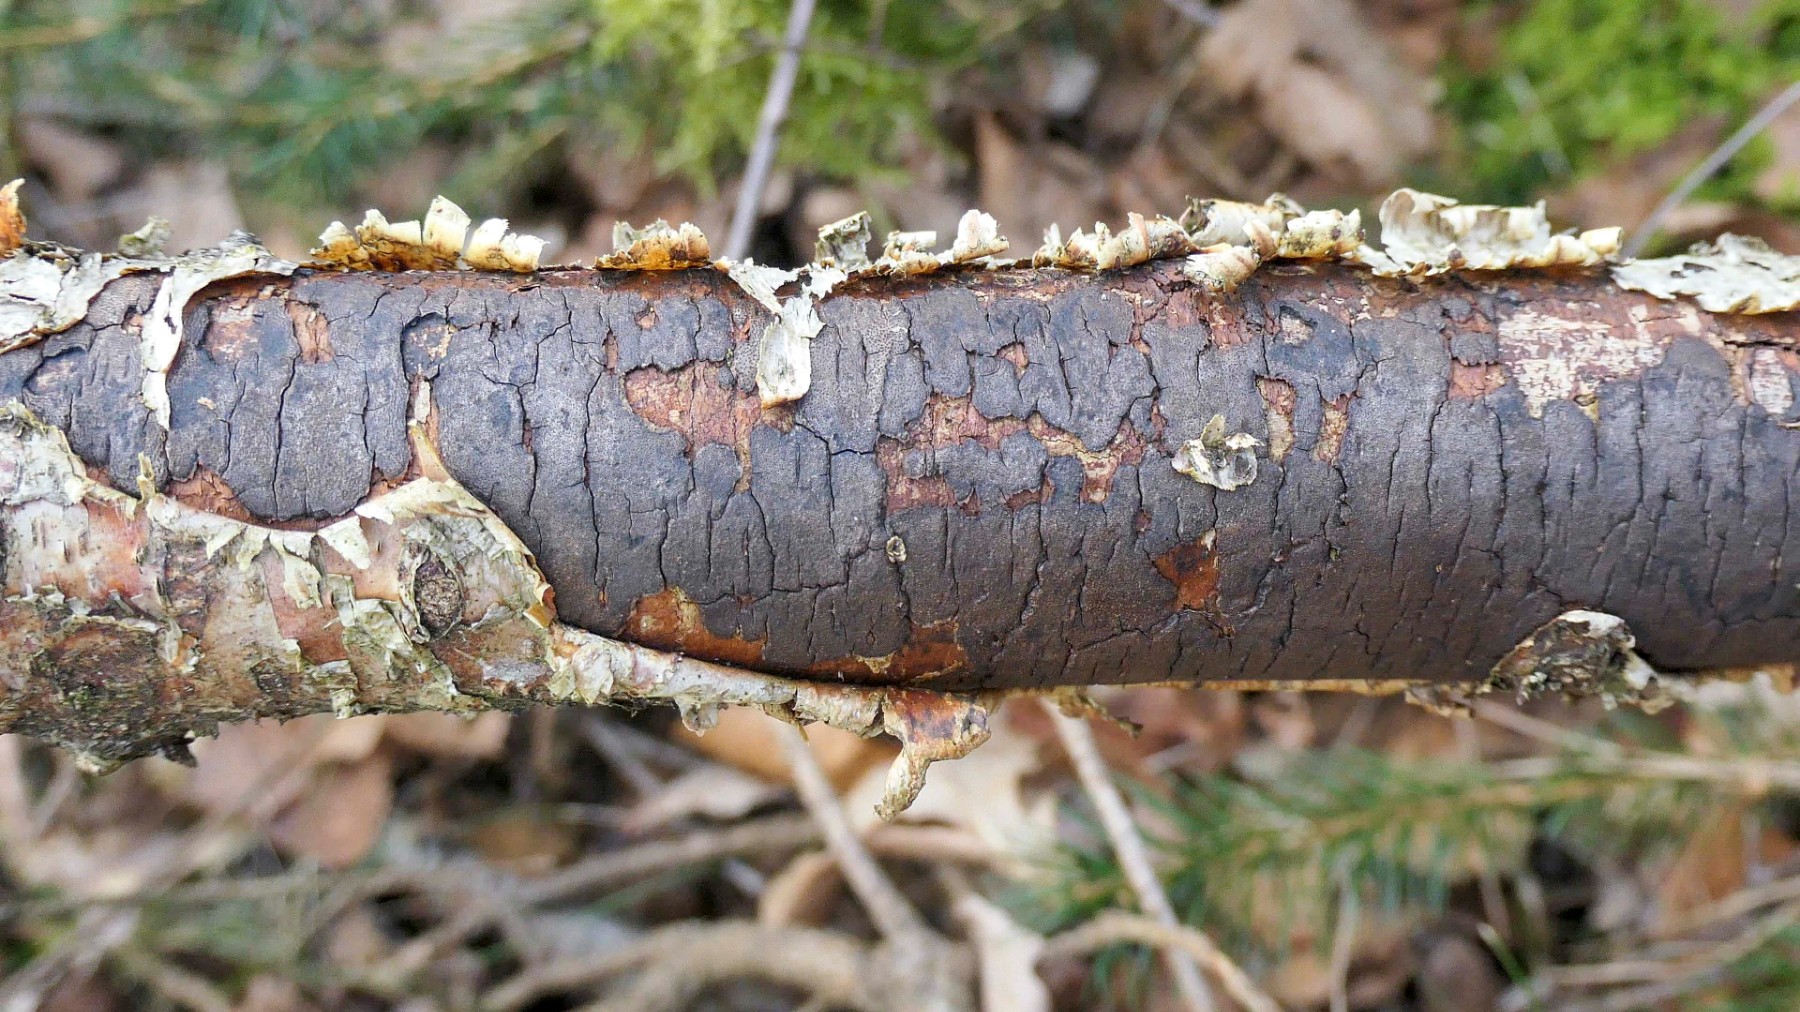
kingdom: Fungi
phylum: Ascomycota
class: Sordariomycetes
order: Xylariales
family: Diatrypaceae
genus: Diatrype
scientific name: Diatrype
